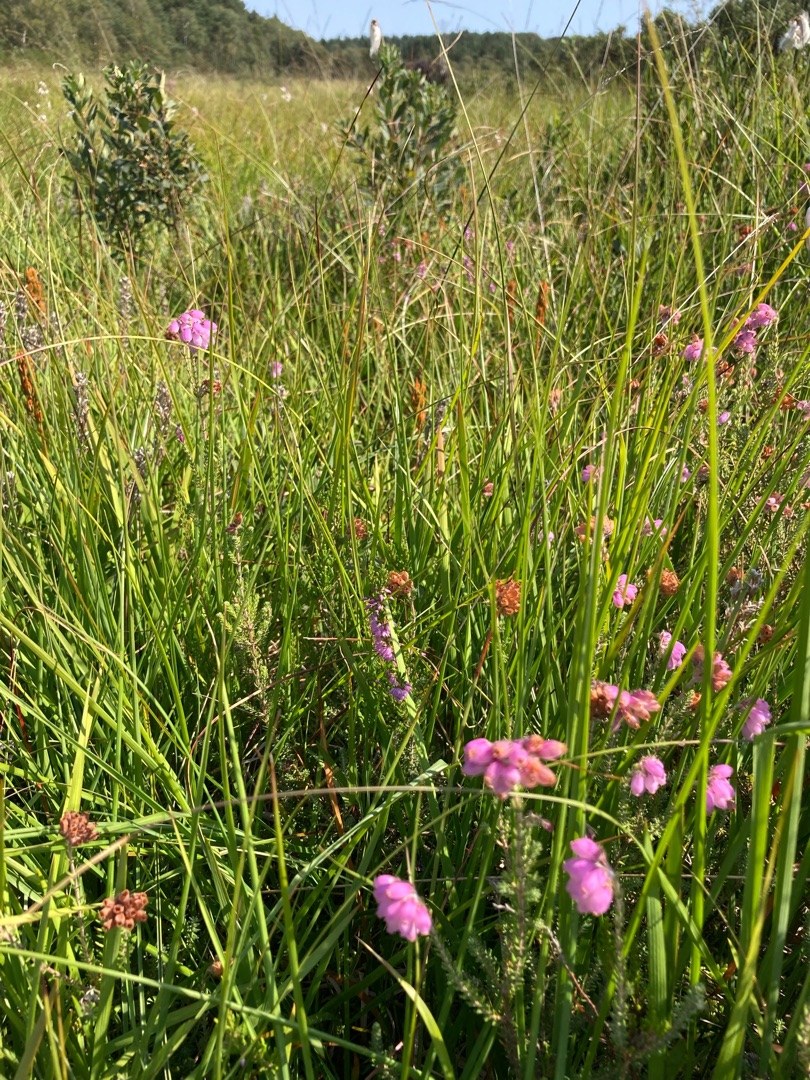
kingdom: Plantae
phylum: Tracheophyta
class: Magnoliopsida
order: Ericales
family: Ericaceae
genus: Erica
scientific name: Erica tetralix
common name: Klokkelyng
